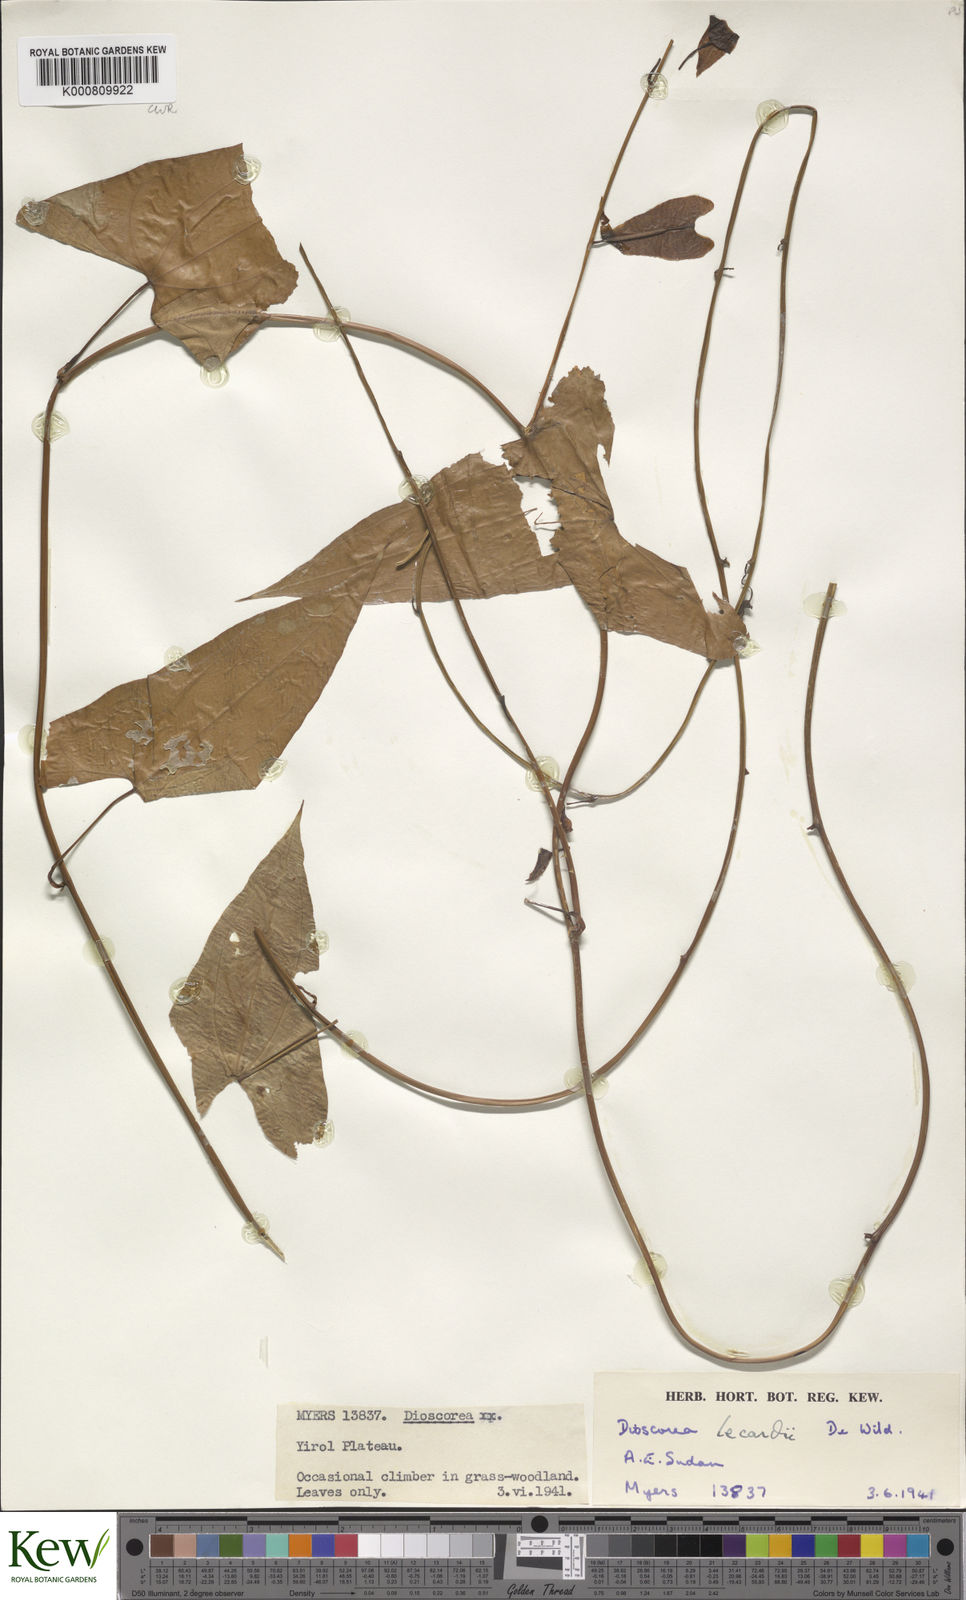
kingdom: Plantae
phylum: Tracheophyta
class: Liliopsida
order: Dioscoreales
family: Dioscoreaceae
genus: Dioscorea
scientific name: Dioscorea sagittifolia
